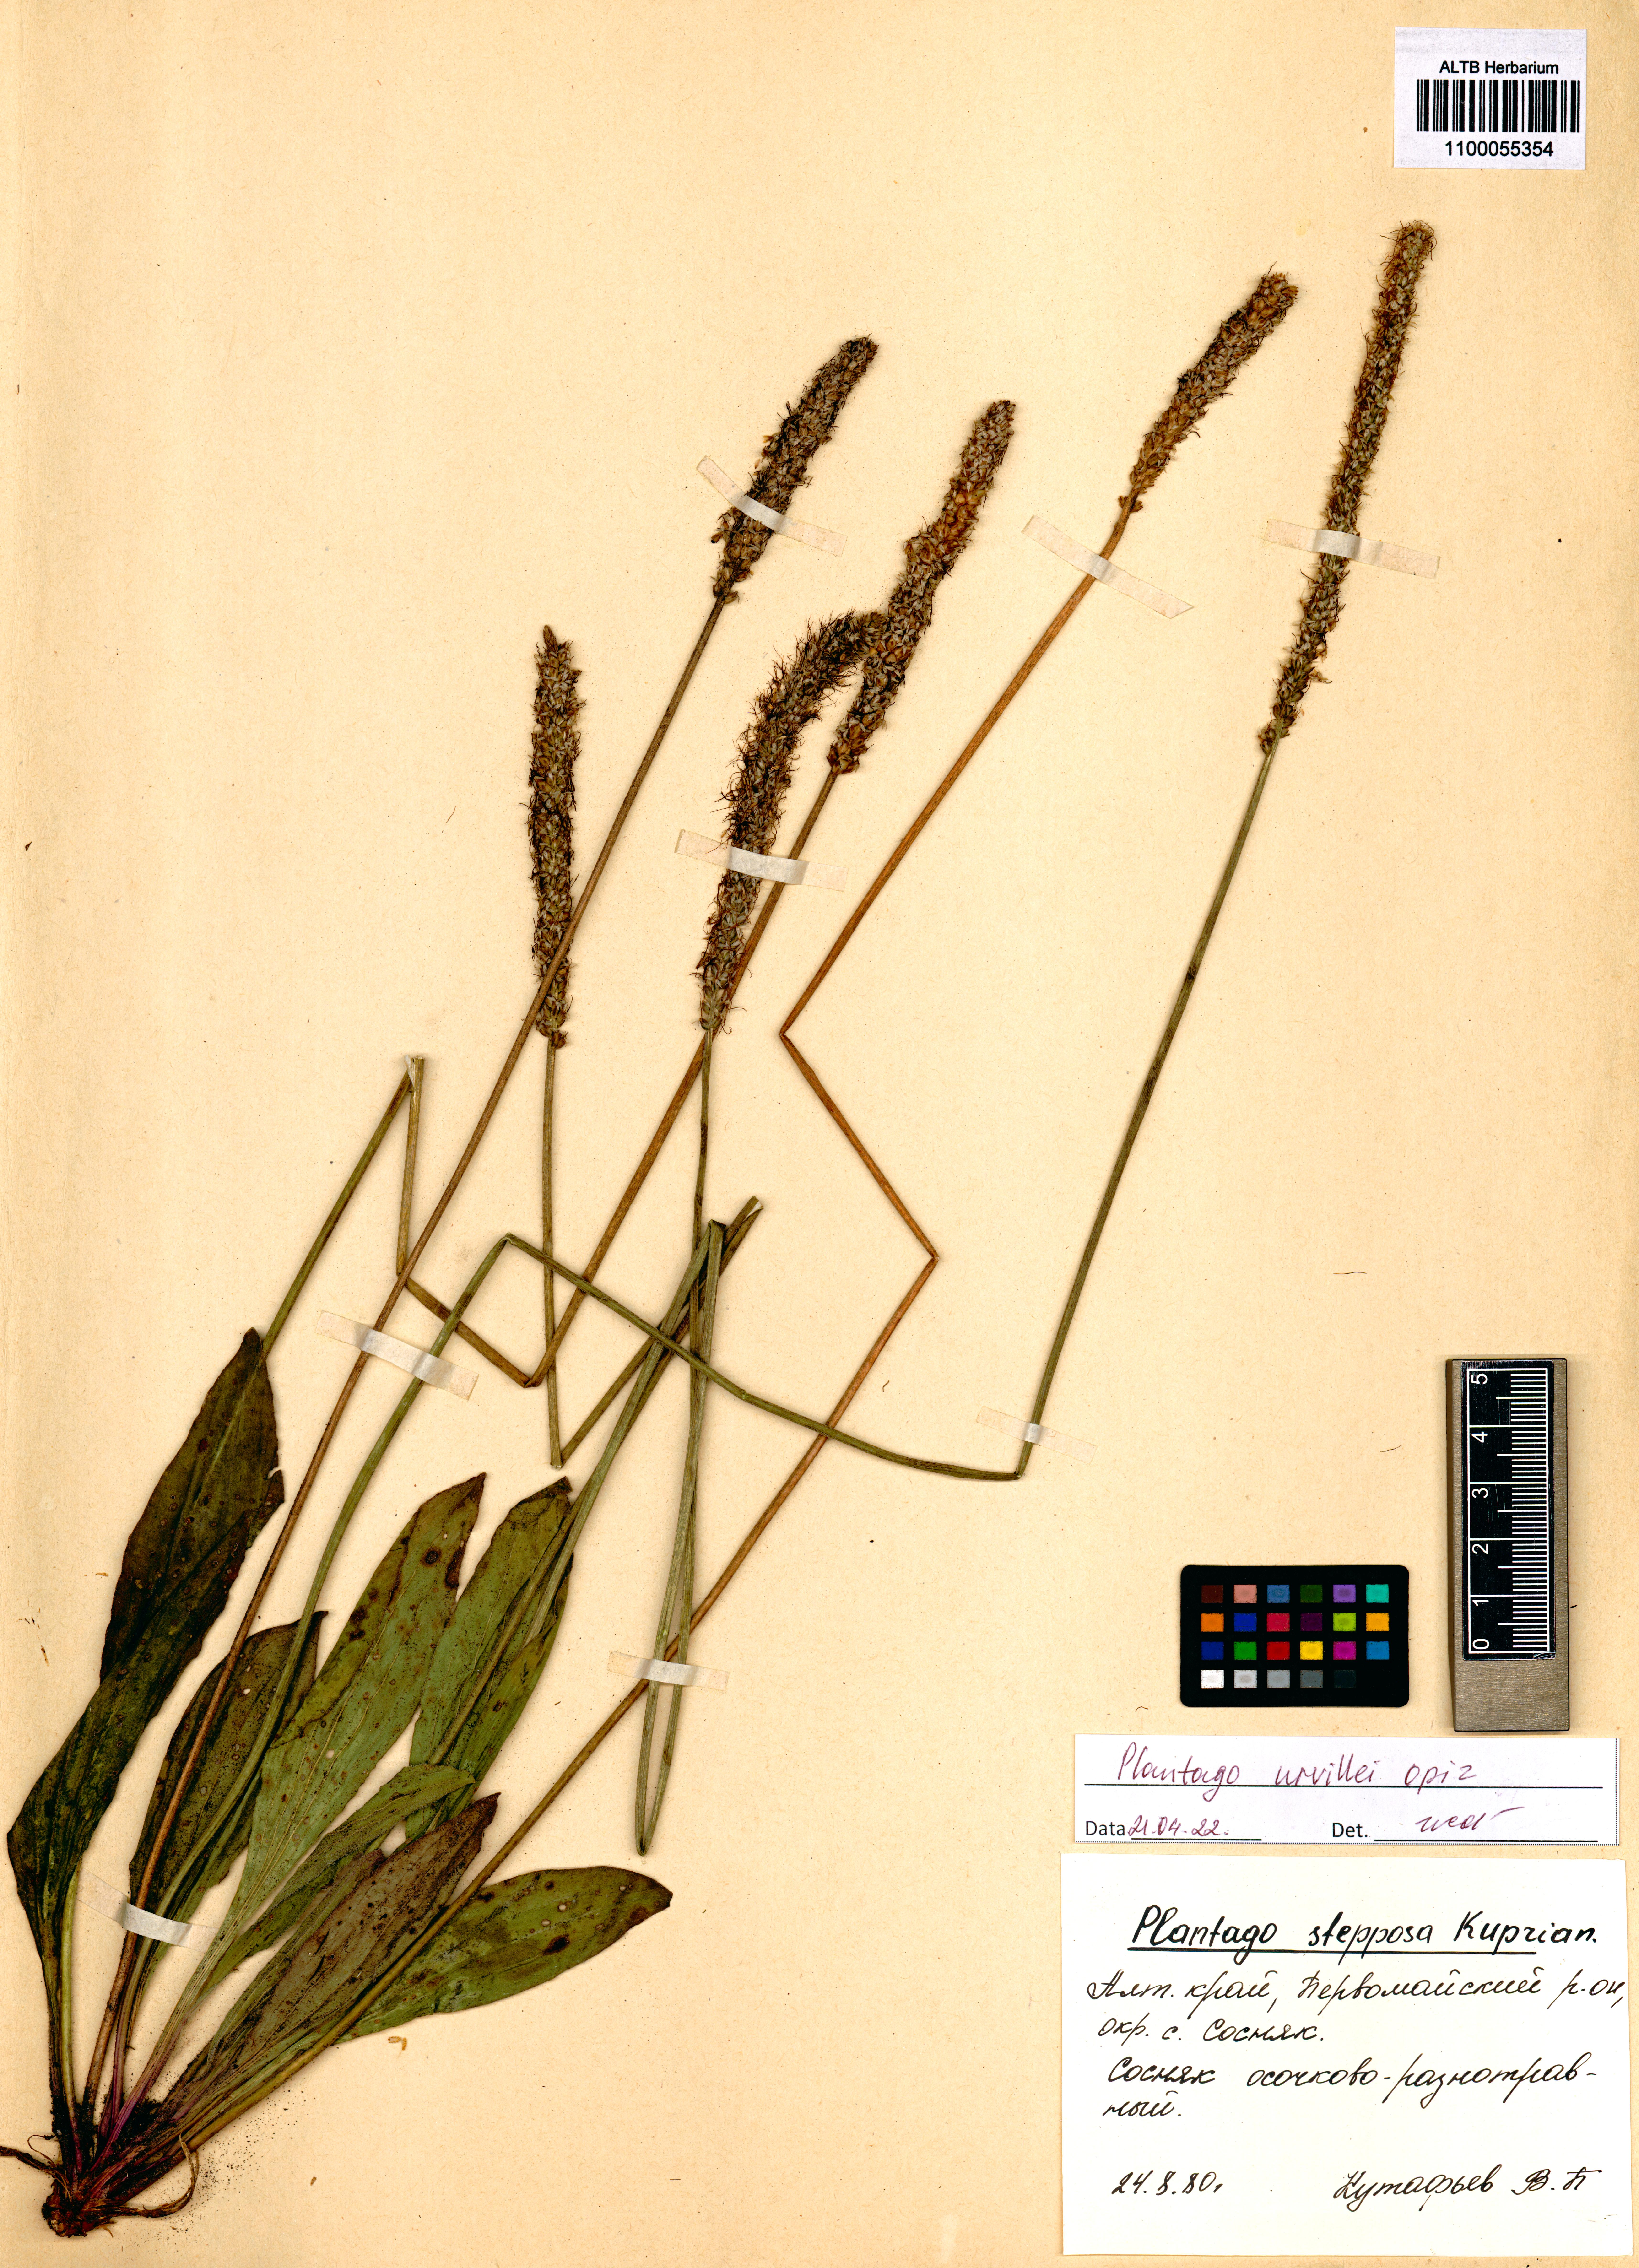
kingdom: Plantae
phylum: Tracheophyta
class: Magnoliopsida
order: Lamiales
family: Plantaginaceae
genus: Plantago
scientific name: Plantago urvillei
